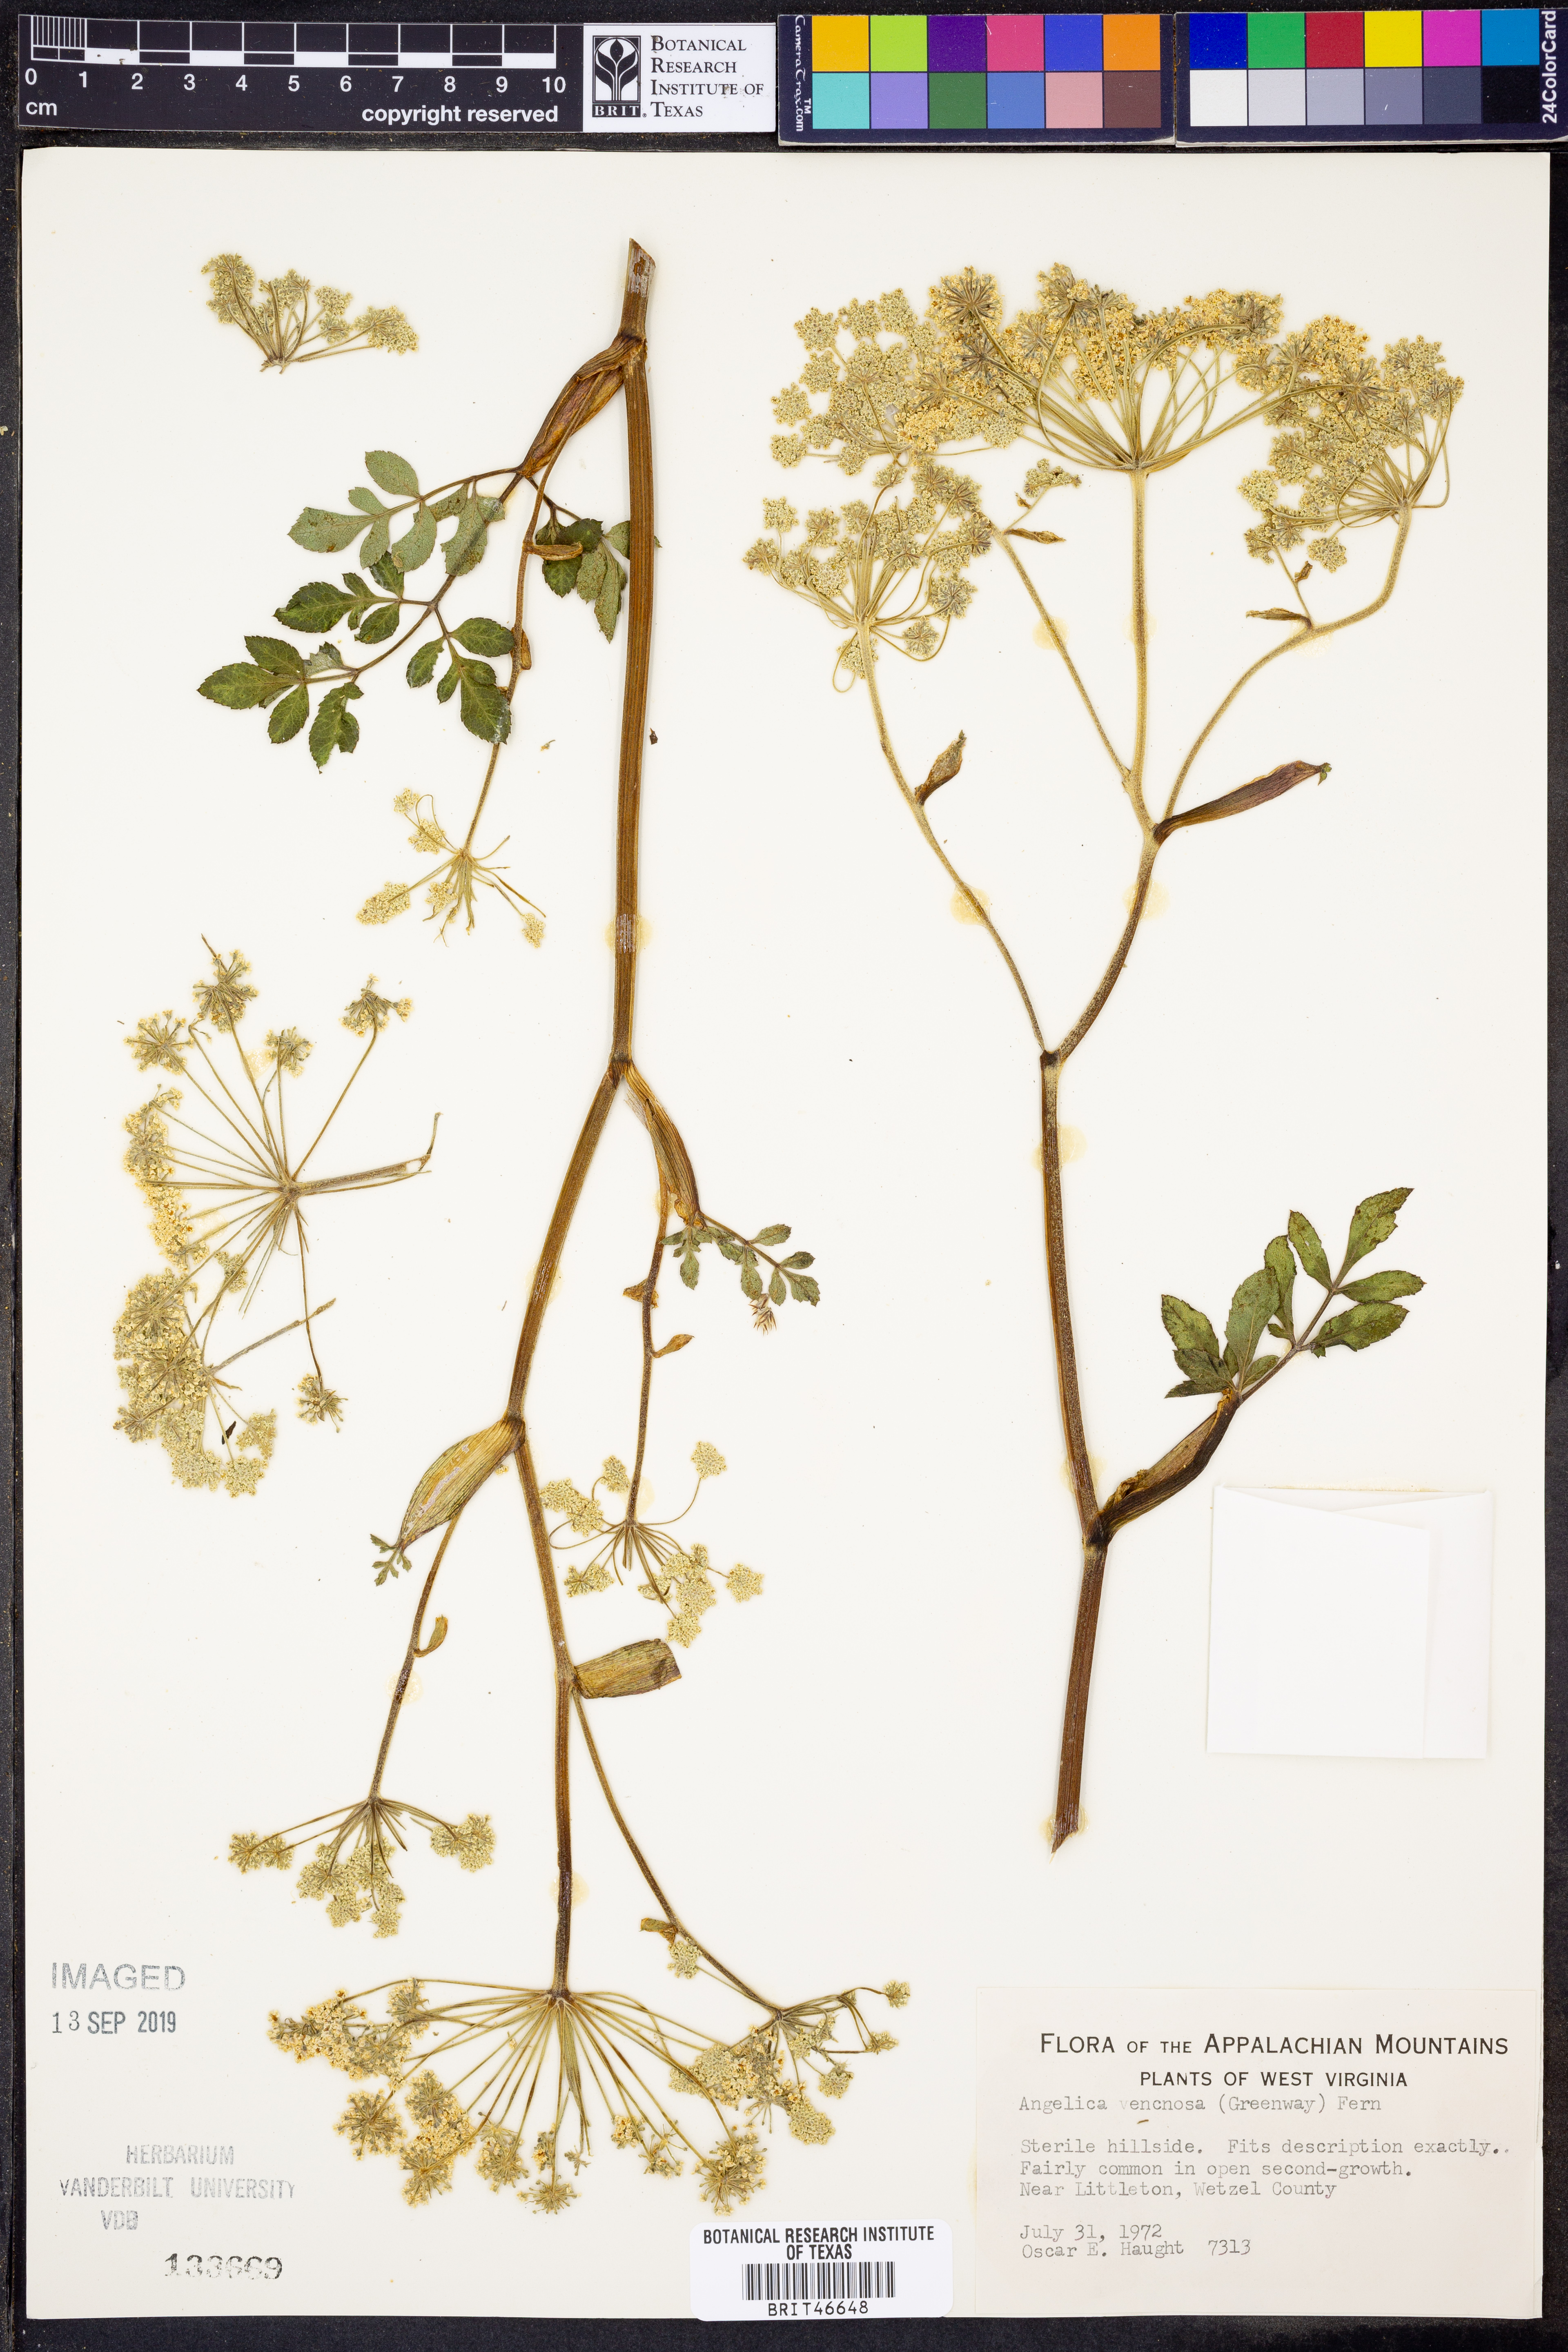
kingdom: Plantae
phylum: Tracheophyta
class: Magnoliopsida
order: Apiales
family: Apiaceae
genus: Angelica
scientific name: Angelica venenosa
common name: Hairy angelica
